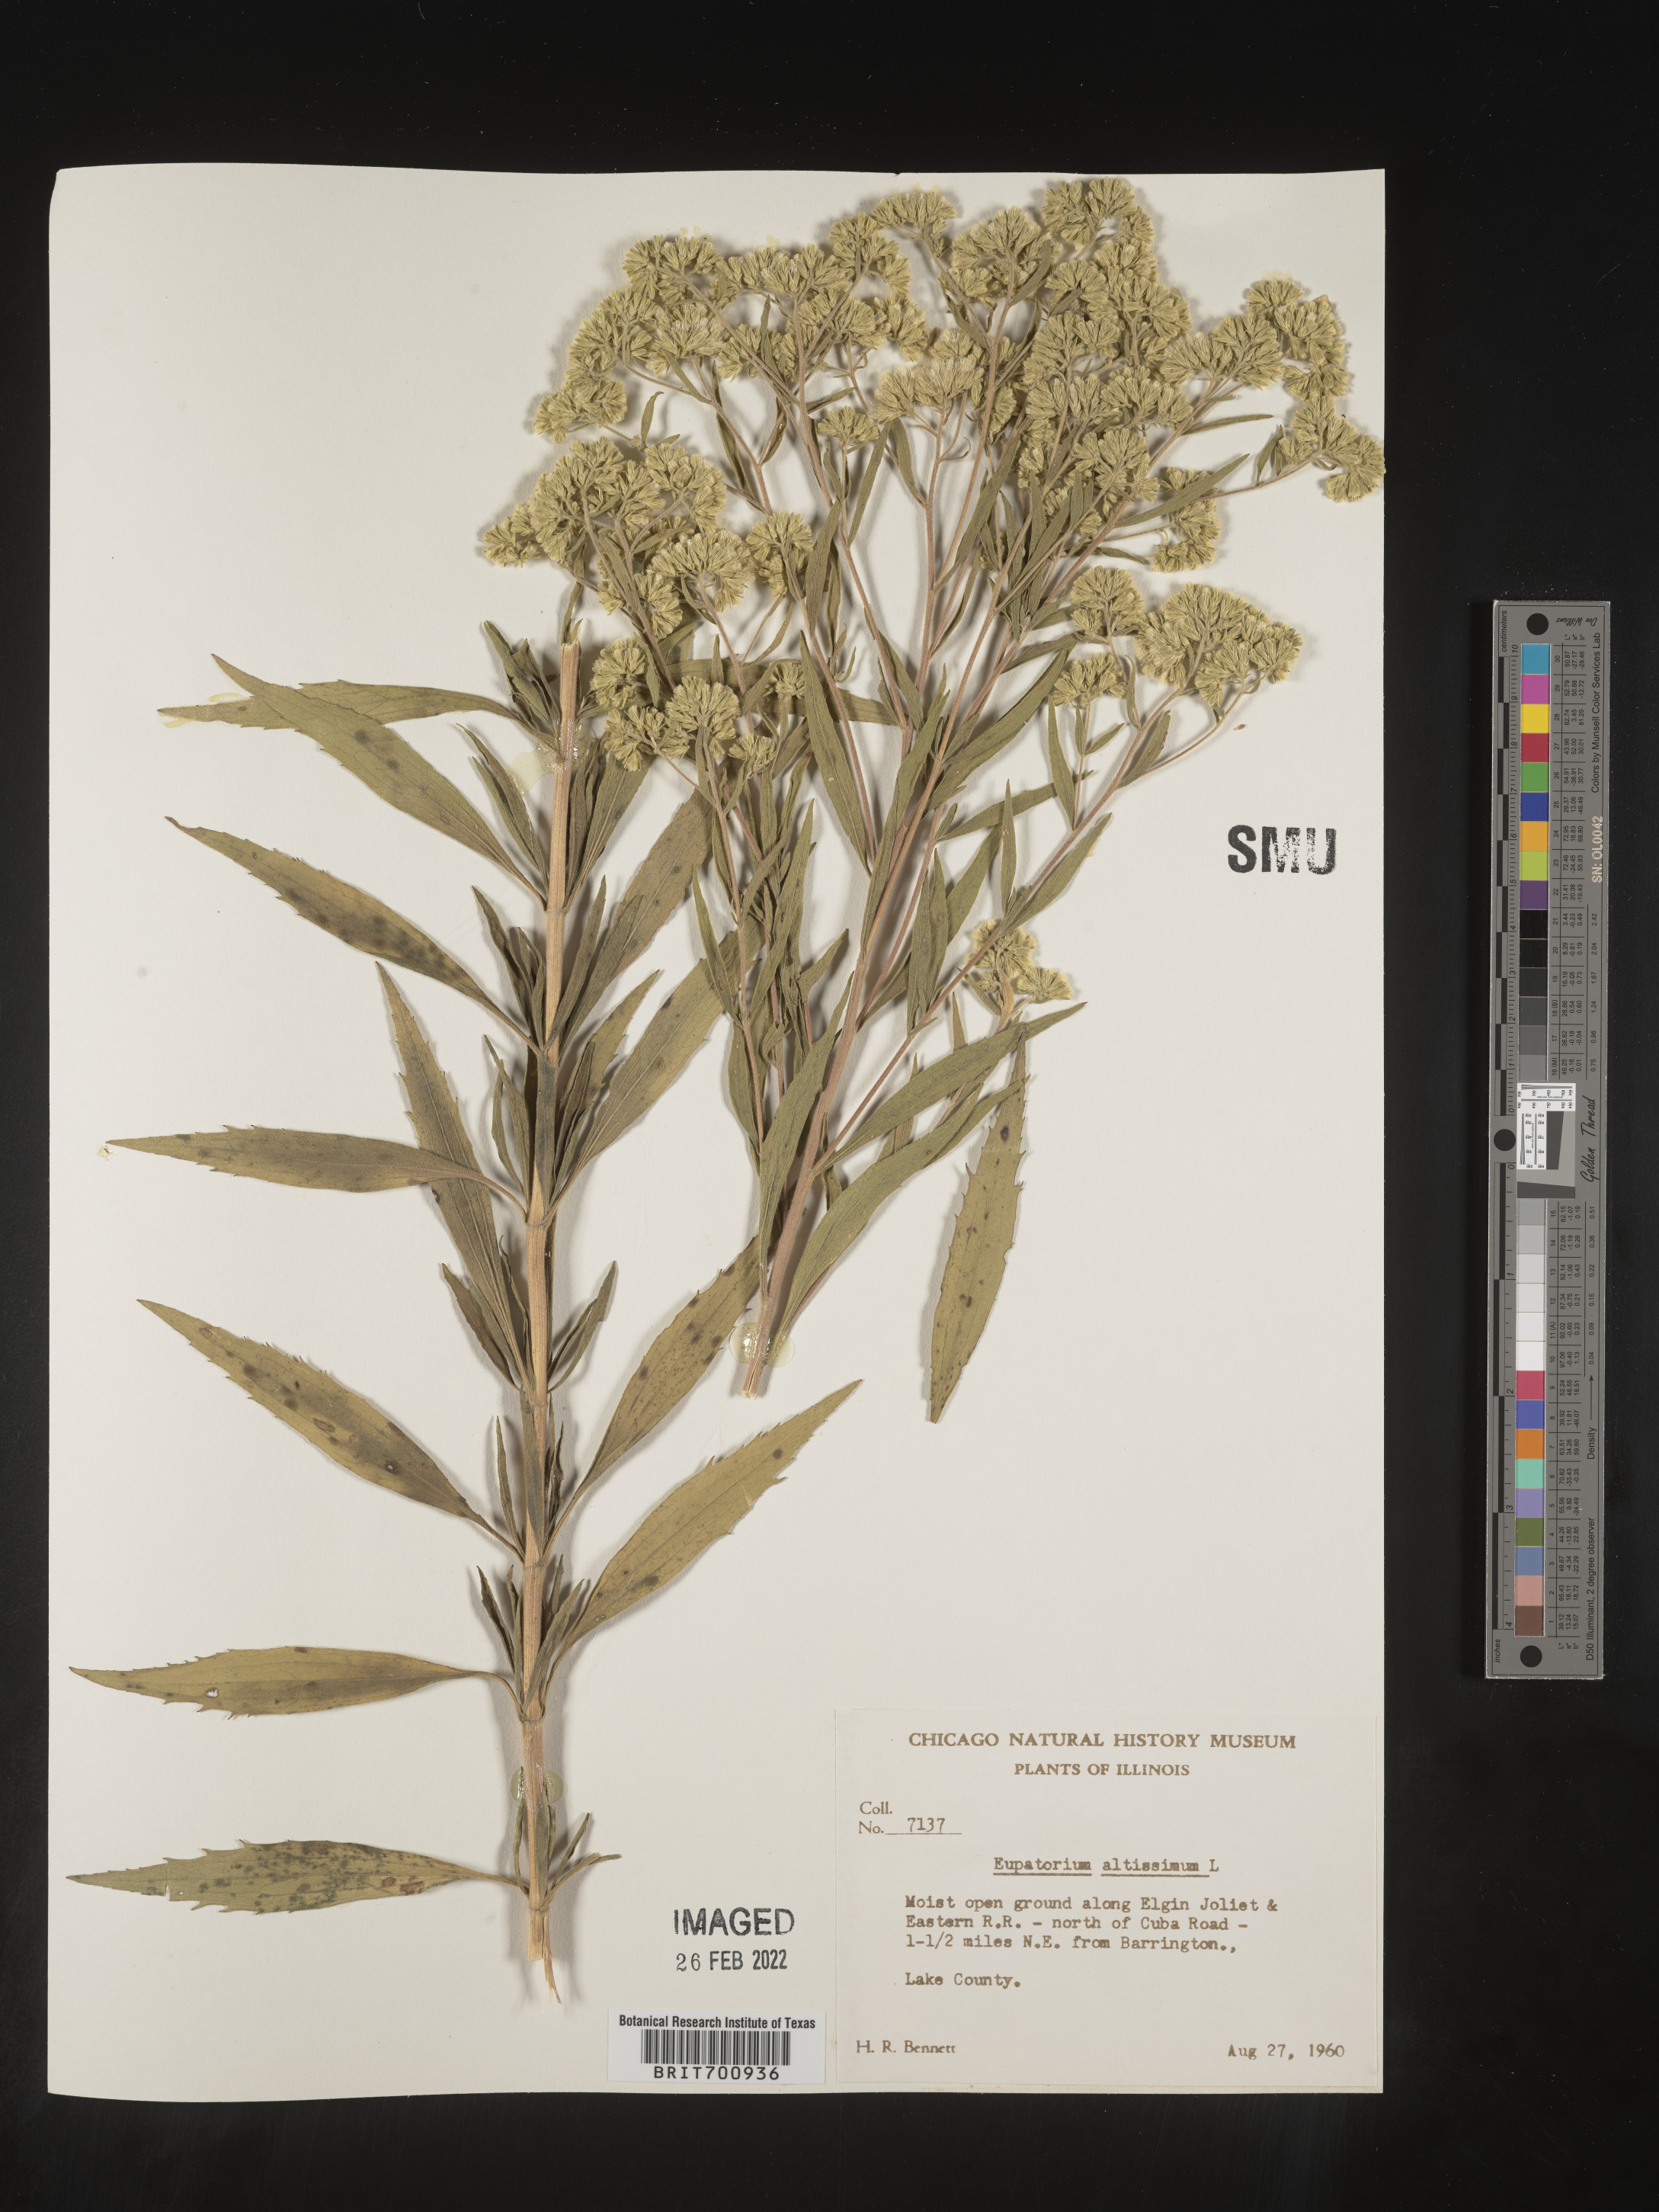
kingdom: Plantae
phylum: Tracheophyta
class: Magnoliopsida
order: Asterales
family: Asteraceae
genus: Eupatorium
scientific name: Eupatorium altissimum
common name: Tall thoroughwort
